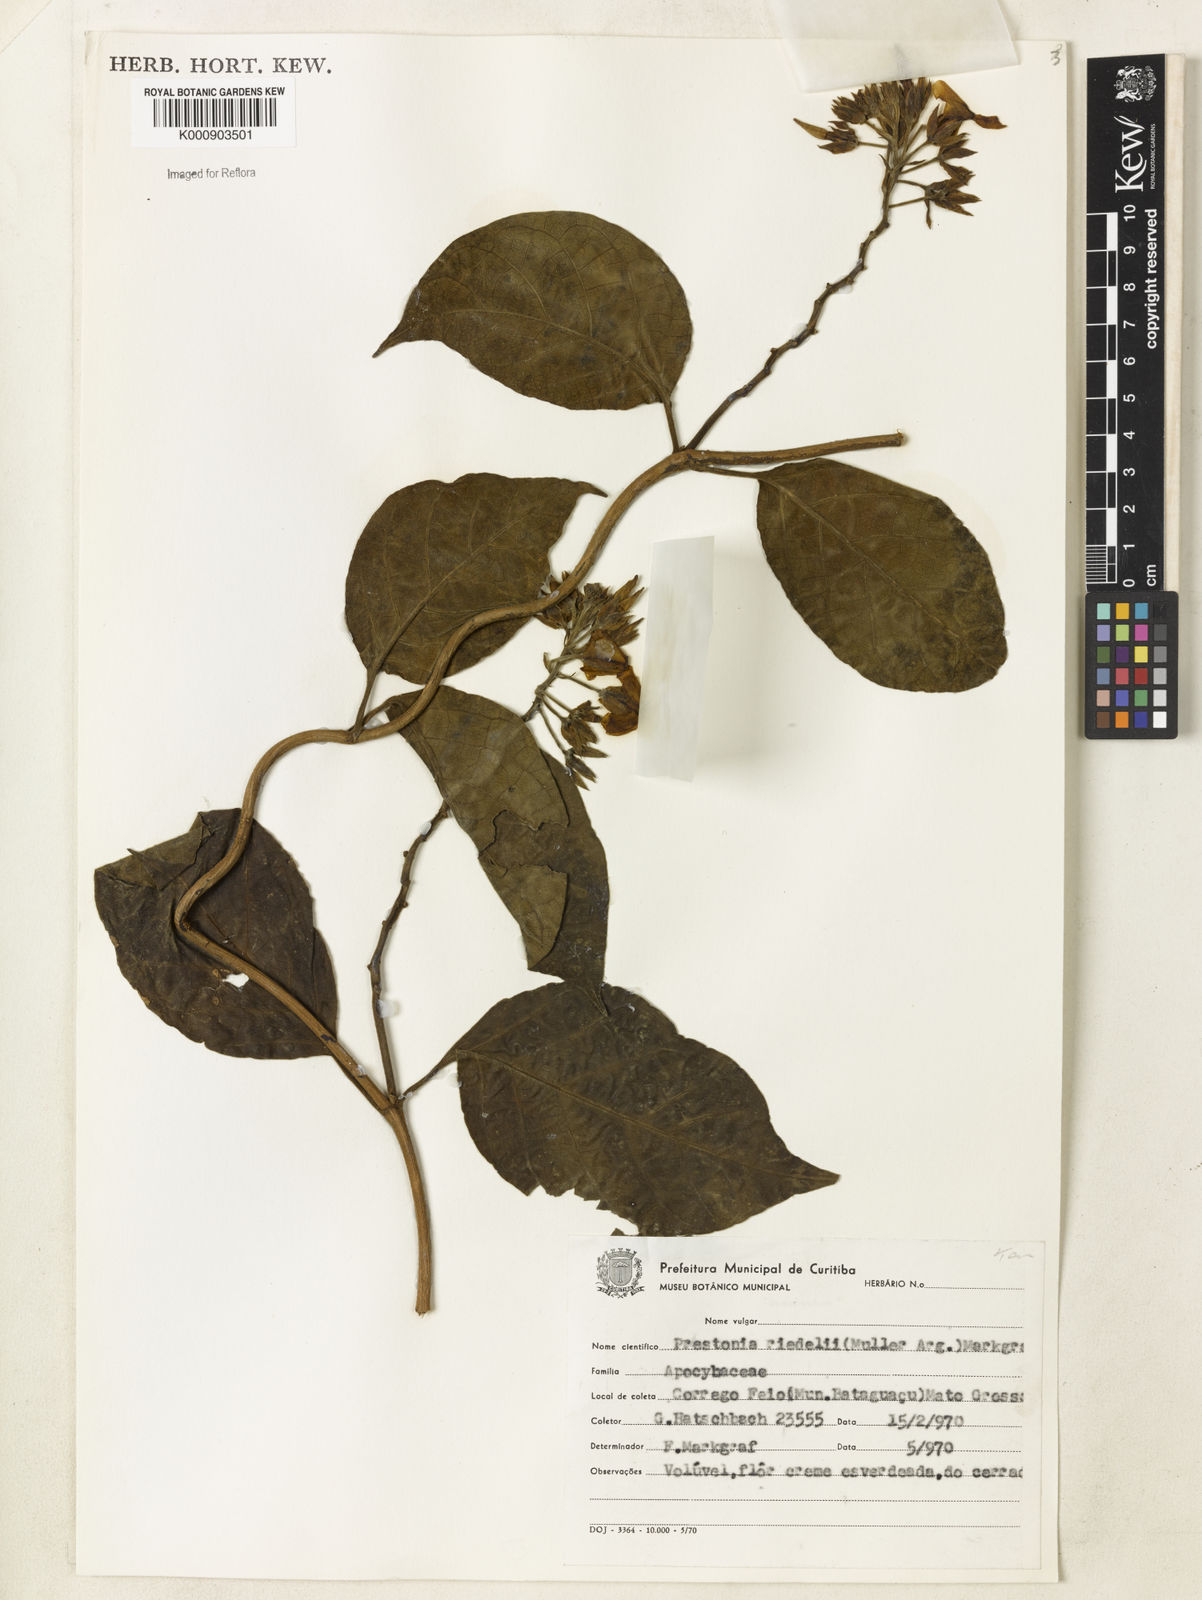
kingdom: Plantae
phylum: Tracheophyta
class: Magnoliopsida
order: Gentianales
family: Apocynaceae
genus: Prestonia
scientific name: Prestonia
